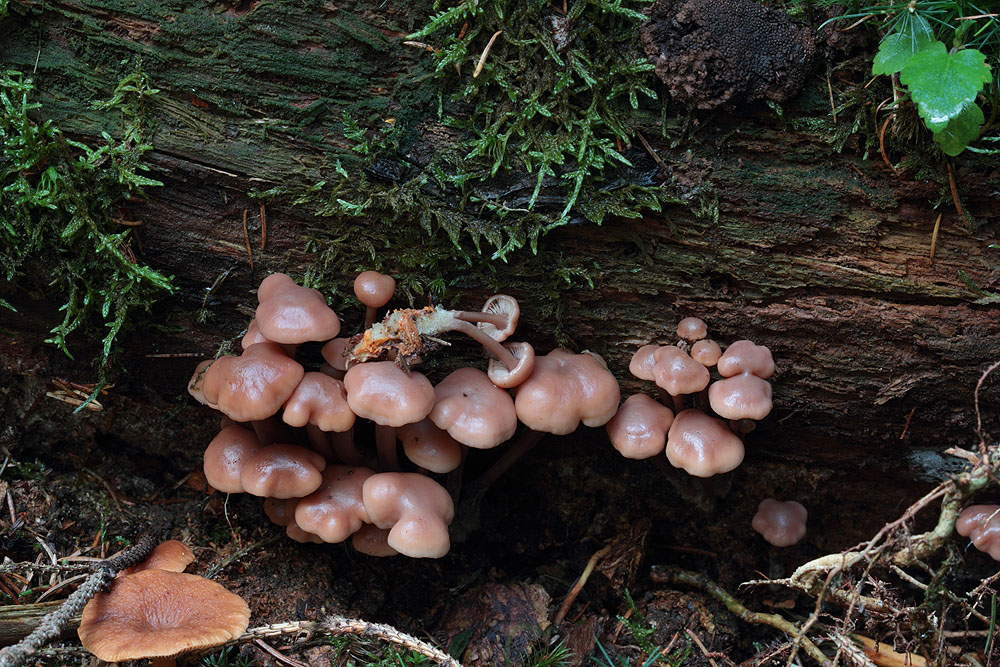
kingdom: Fungi
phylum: Basidiomycota
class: Agaricomycetes
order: Agaricales
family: Omphalotaceae
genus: Collybiopsis
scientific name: Collybiopsis confluens
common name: knippe-fladhat
